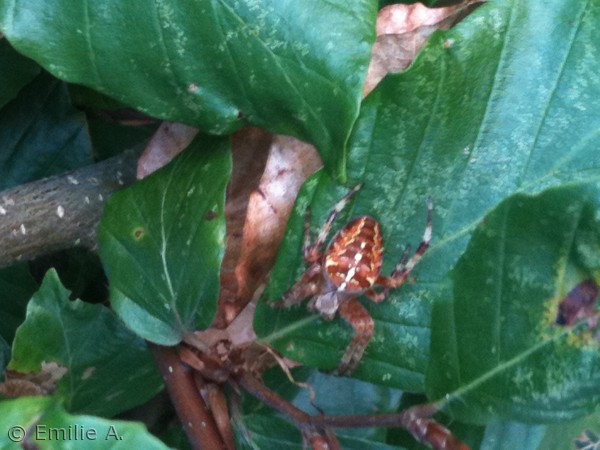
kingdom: Animalia
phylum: Arthropoda
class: Arachnida
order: Araneae
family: Araneidae
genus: Araneus
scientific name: Araneus diadematus
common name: Korsedderkop
